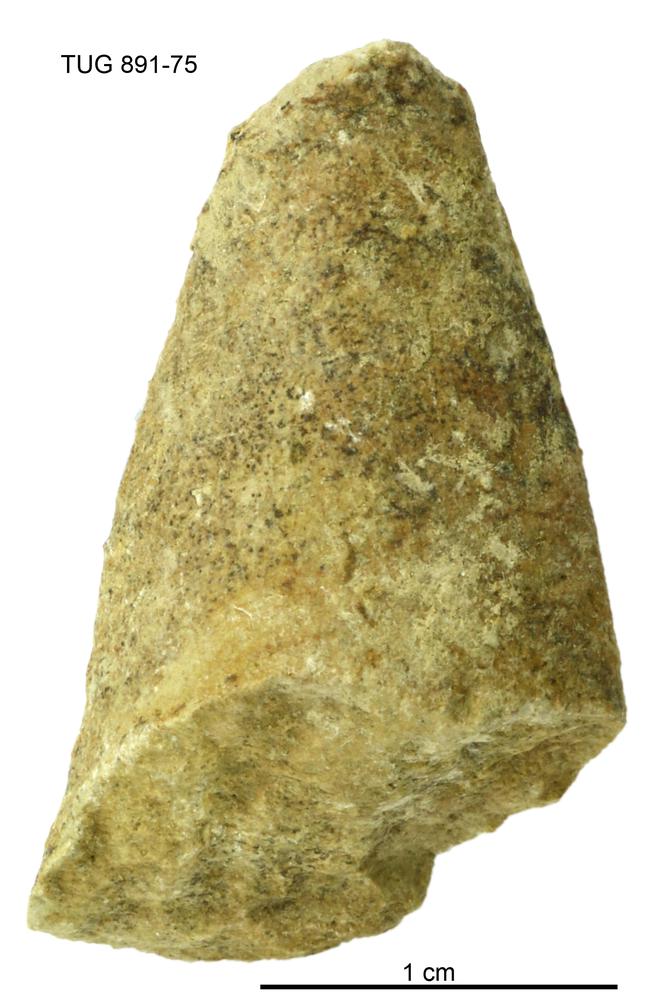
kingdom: Animalia
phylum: Annelida
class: Polychaeta
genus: Hyolithes
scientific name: Hyolithes
